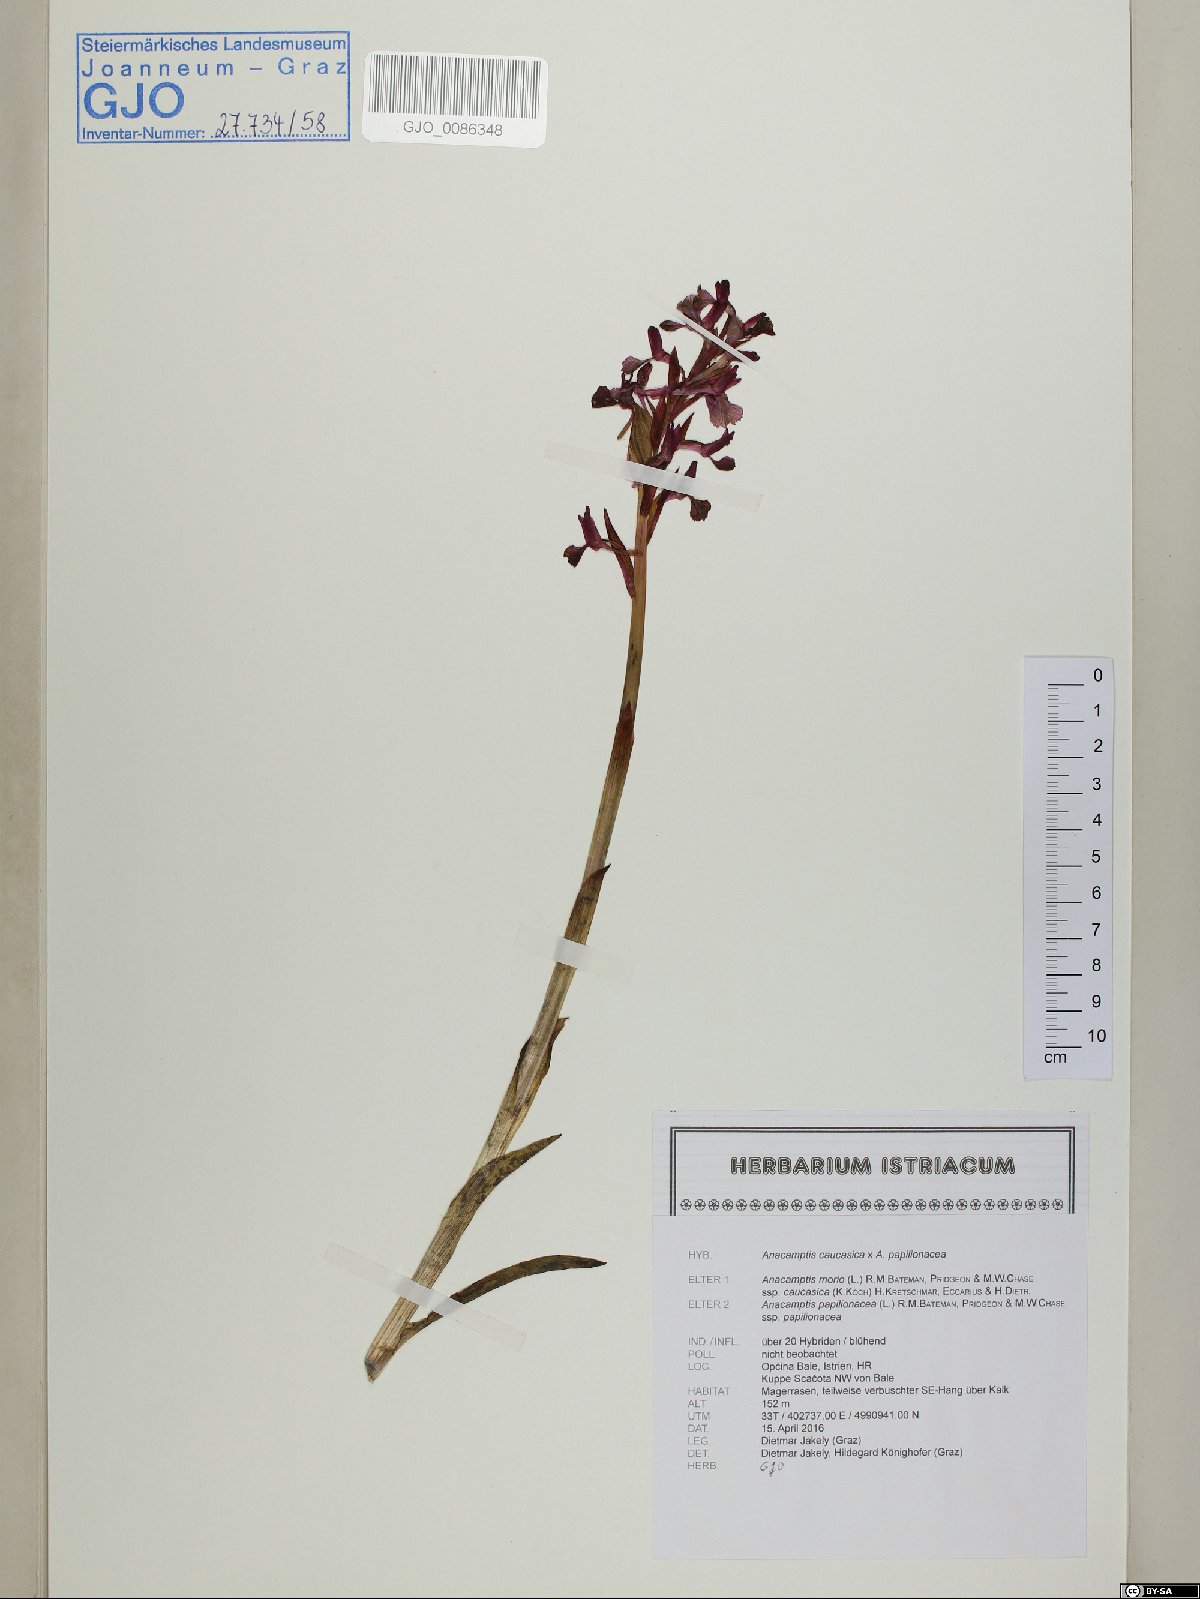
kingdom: Plantae
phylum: Tracheophyta
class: Liliopsida
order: Asparagales
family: Orchidaceae
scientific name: Orchidaceae
